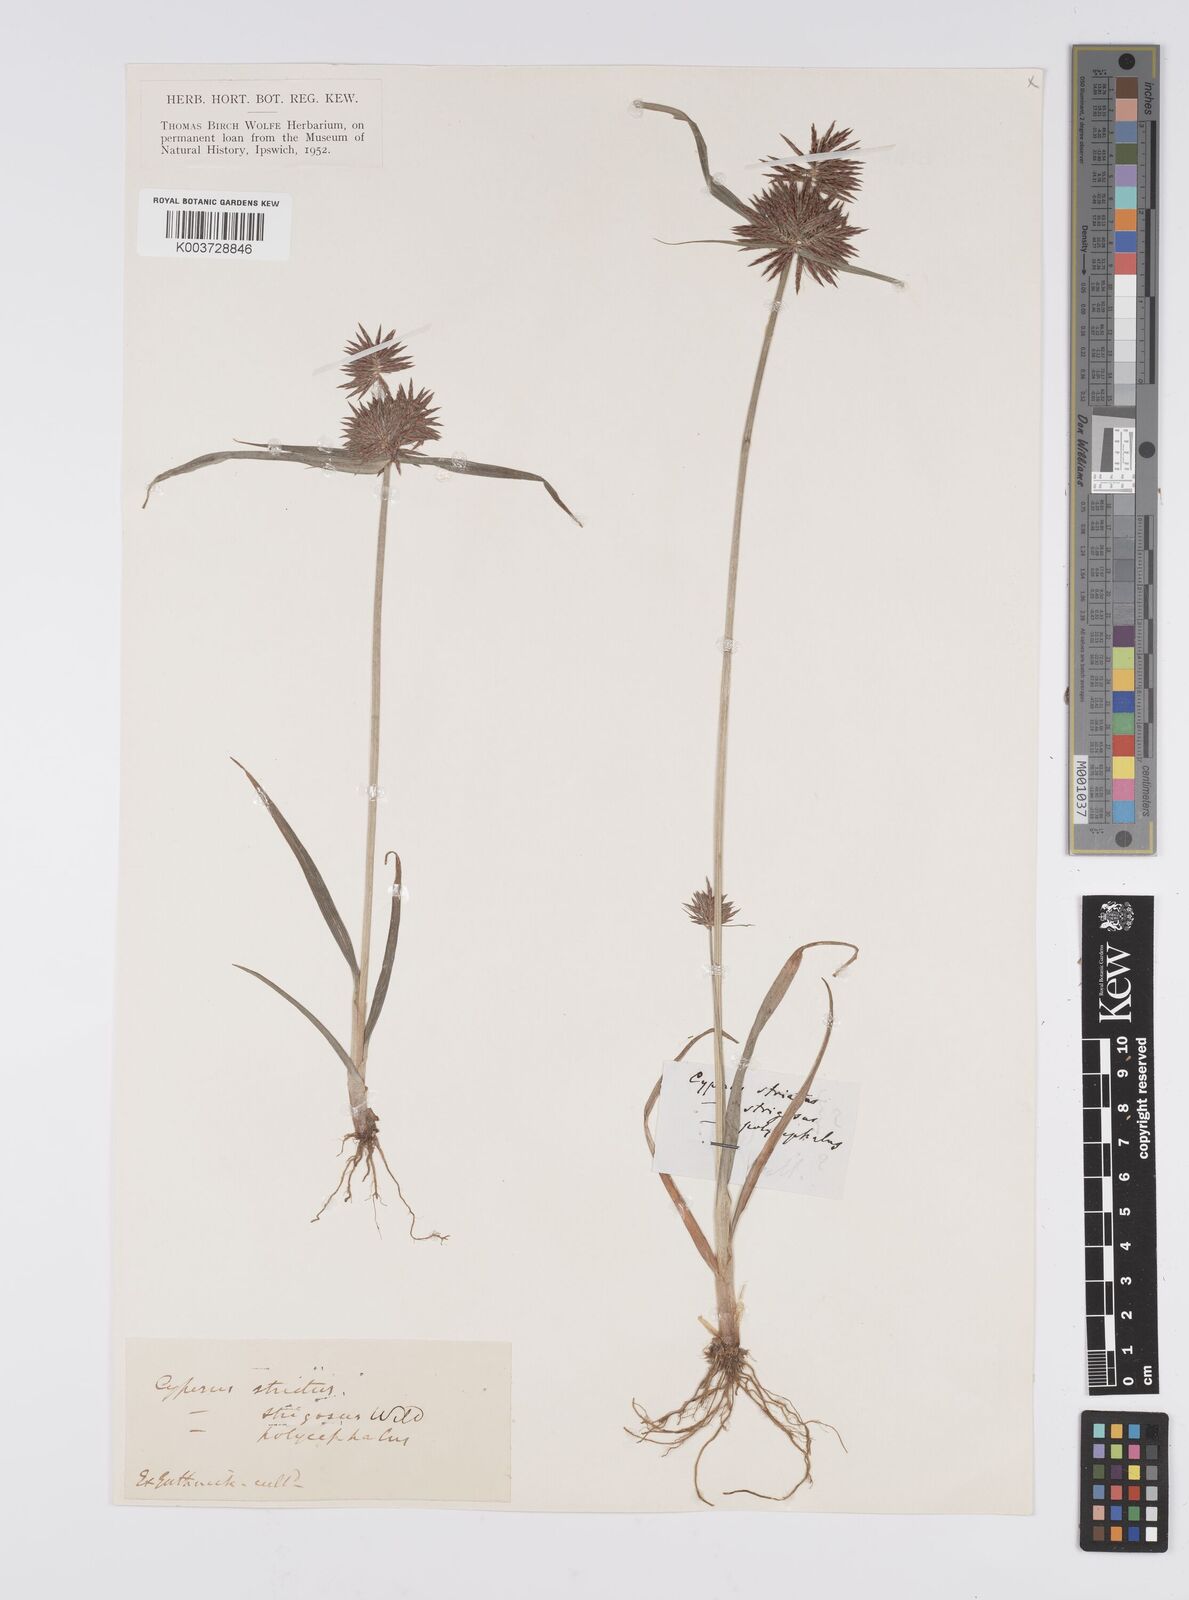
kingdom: Plantae
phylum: Tracheophyta
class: Liliopsida
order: Poales
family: Cyperaceae
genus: Cyperus
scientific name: Cyperus congestus
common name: Dense flat sedge
